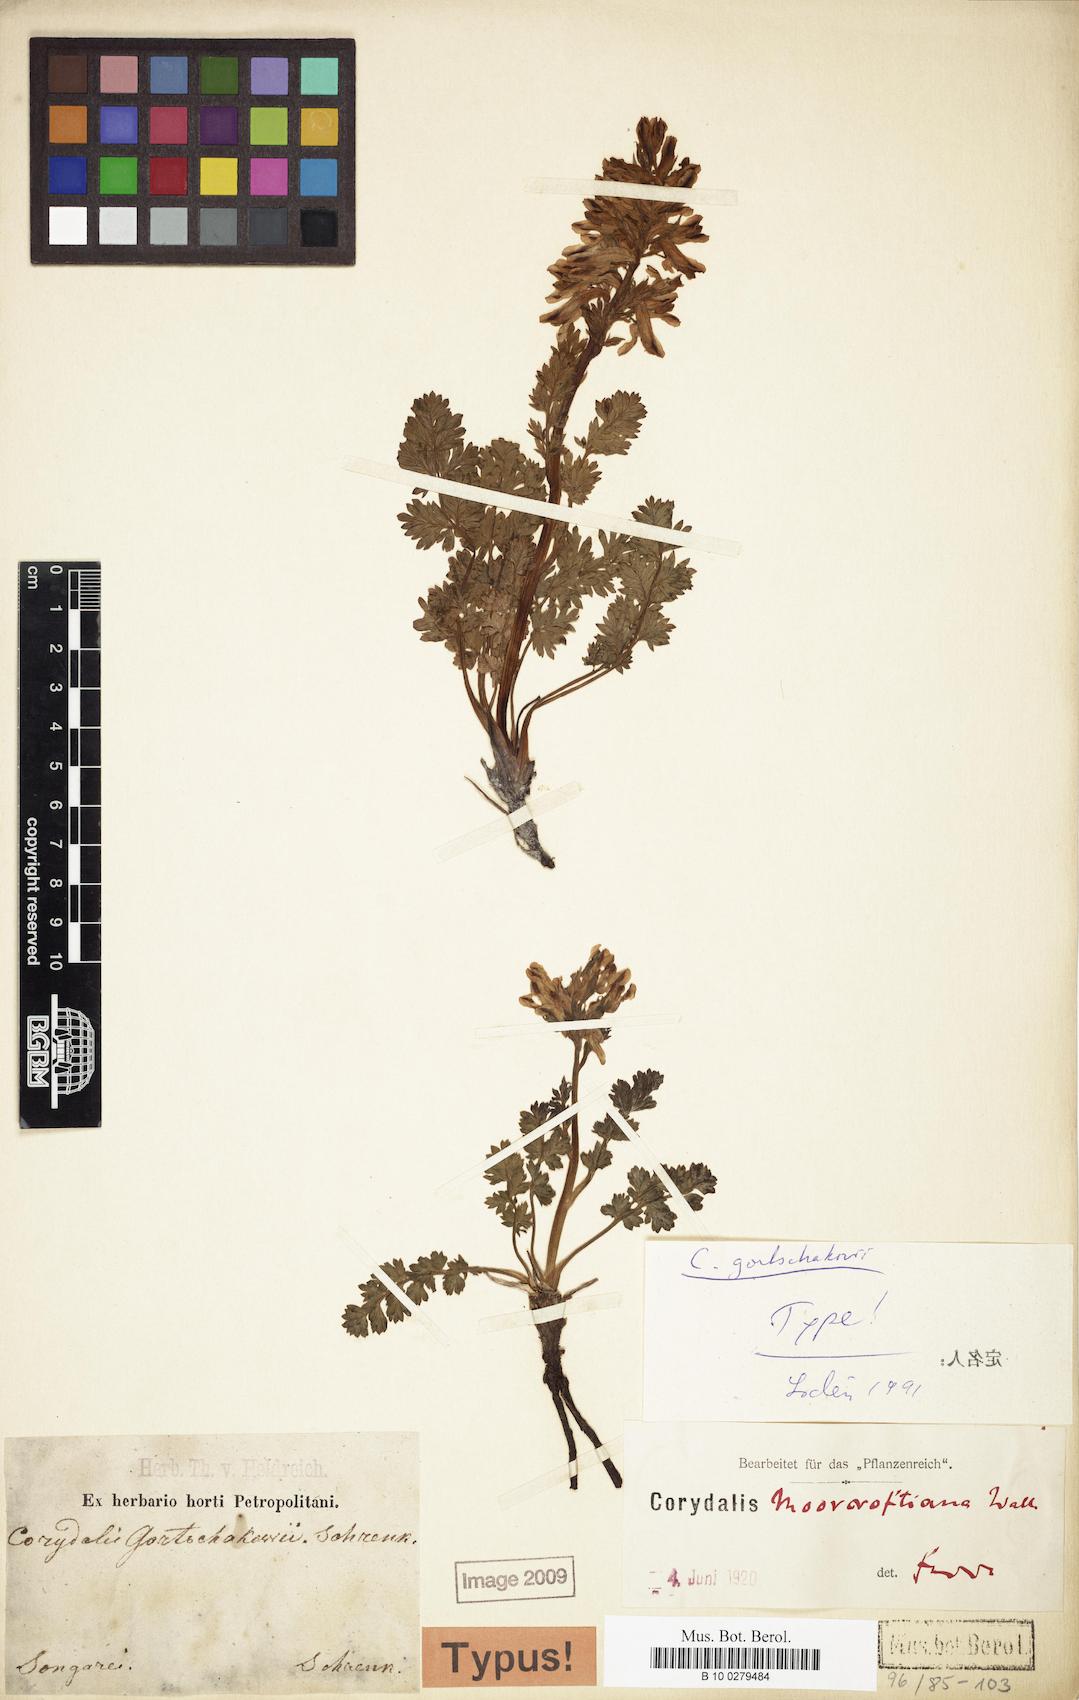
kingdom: Plantae
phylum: Tracheophyta
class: Magnoliopsida
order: Ranunculales
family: Papaveraceae
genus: Corydalis
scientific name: Corydalis gortschakovii
